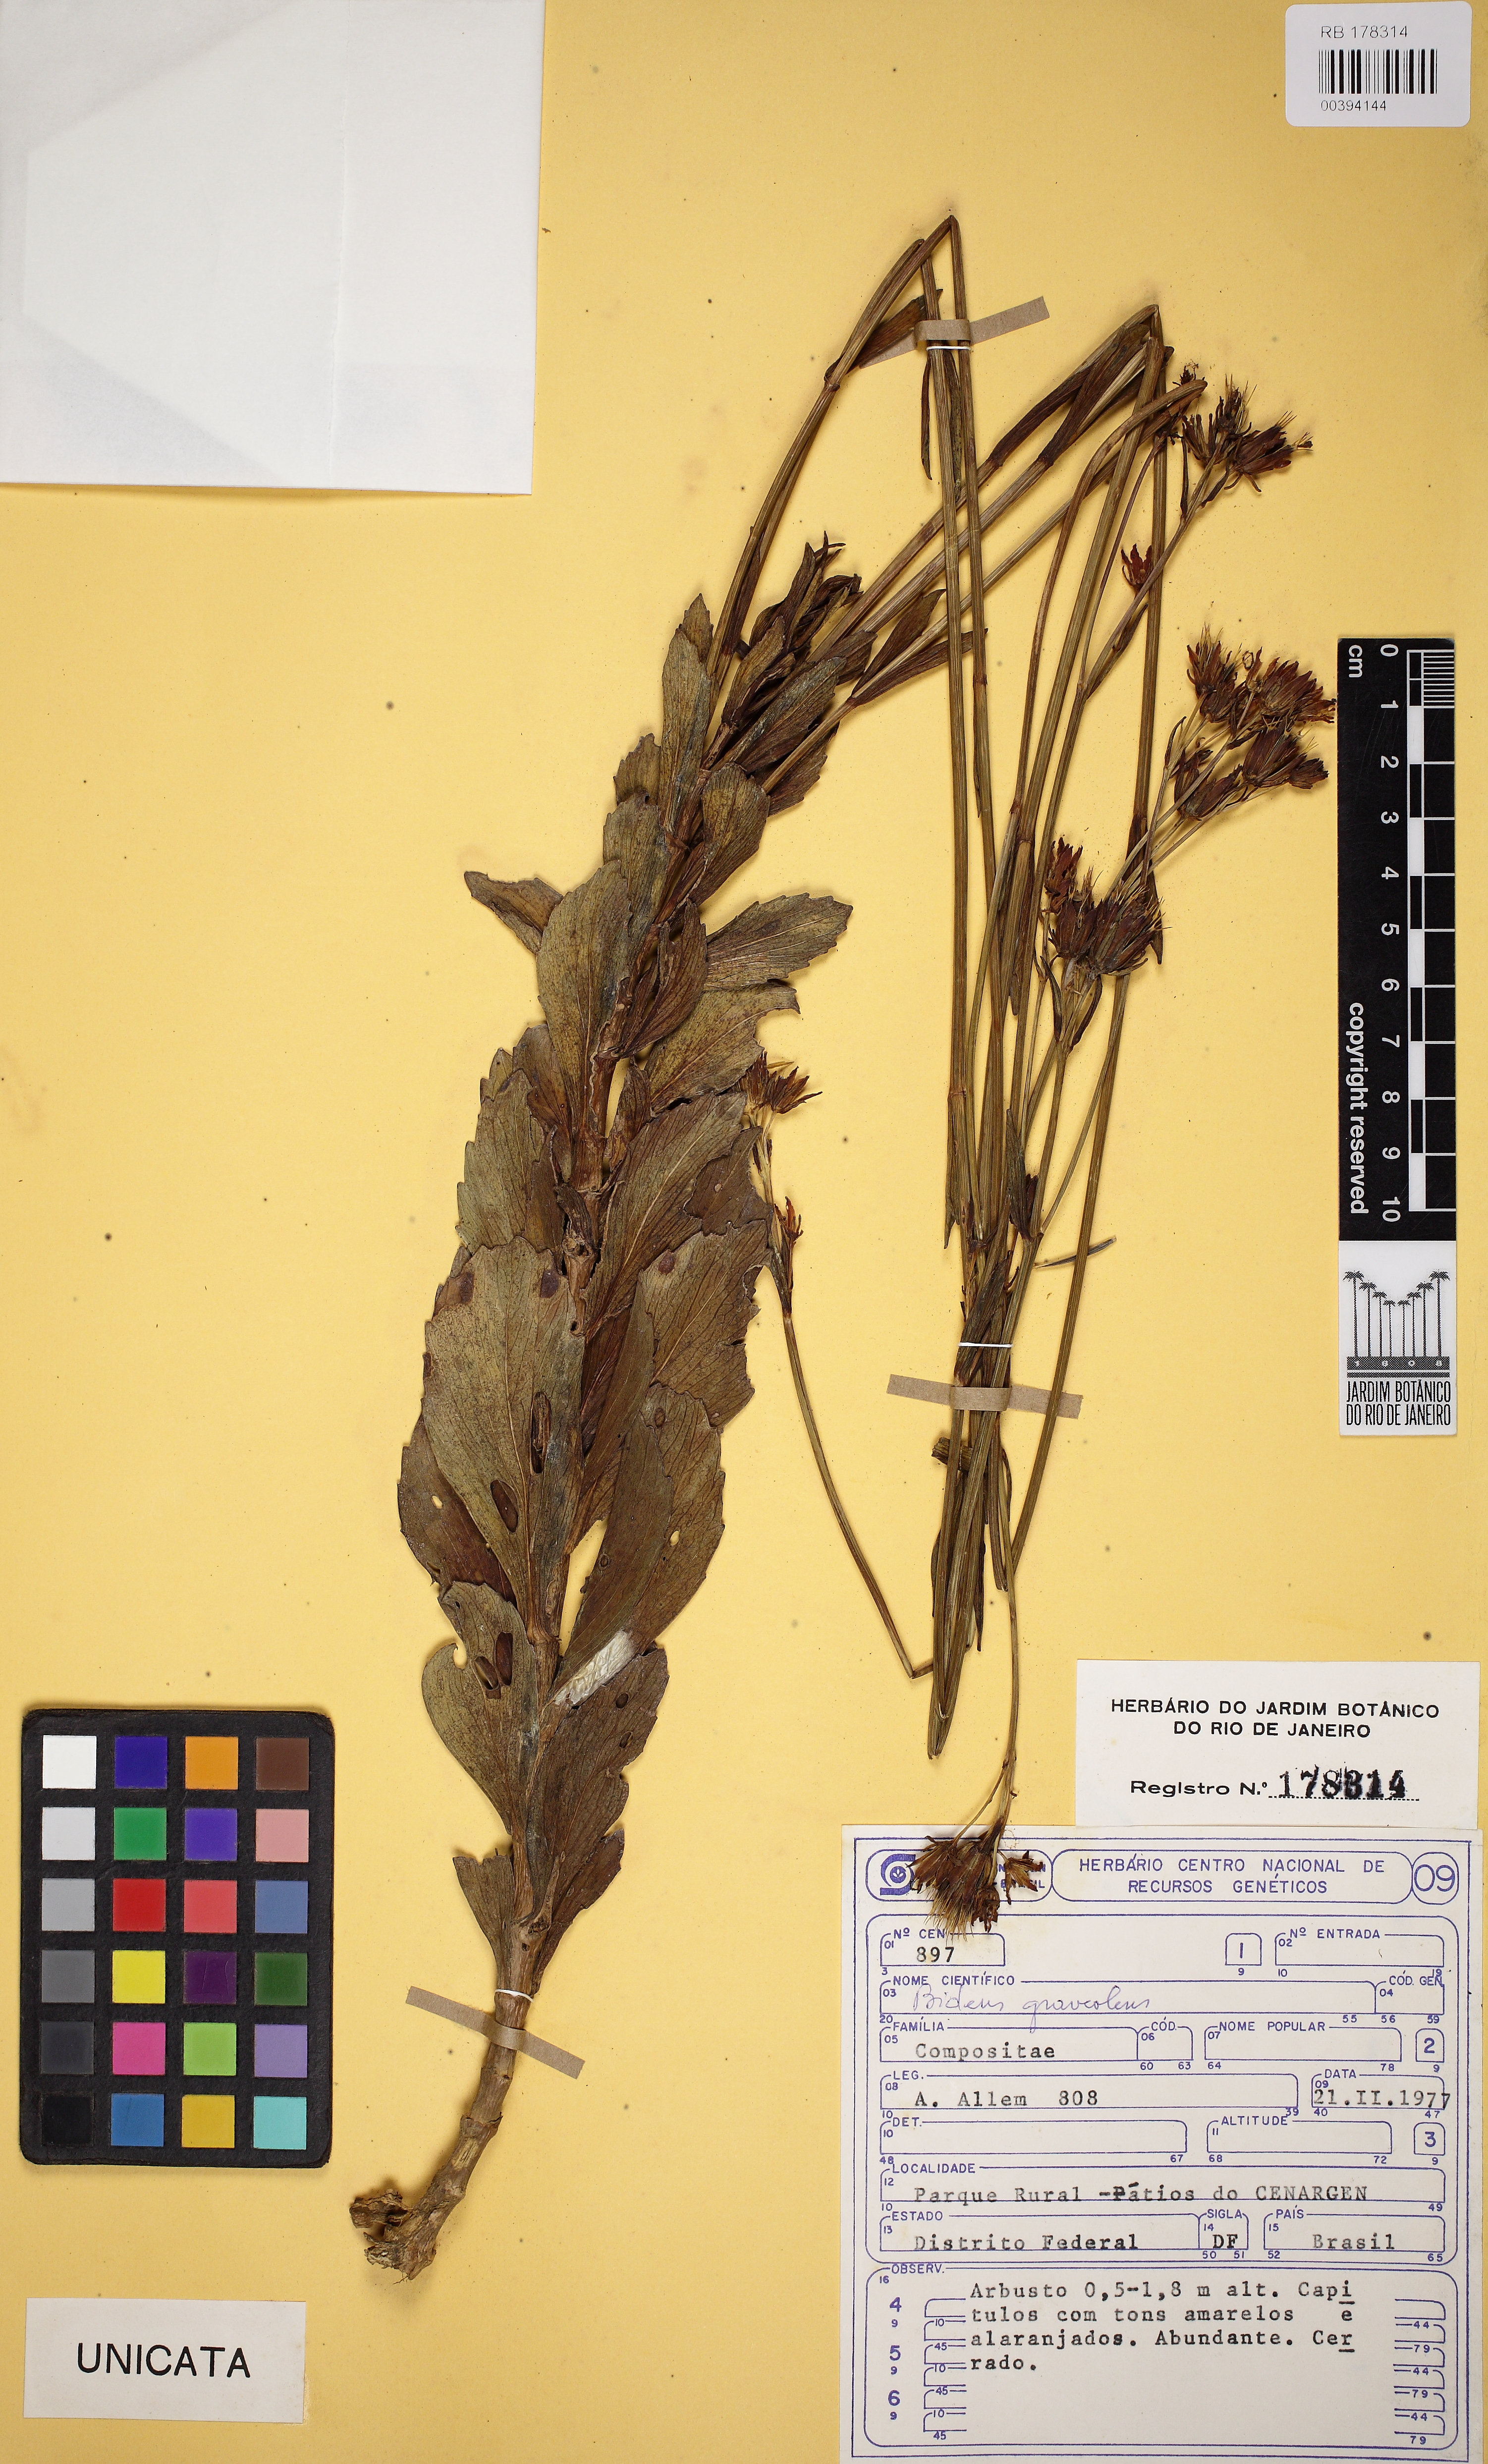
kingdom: Plantae
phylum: Tracheophyta
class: Magnoliopsida
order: Asterales
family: Asteraceae
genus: Bidens
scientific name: Bidens graveolens
